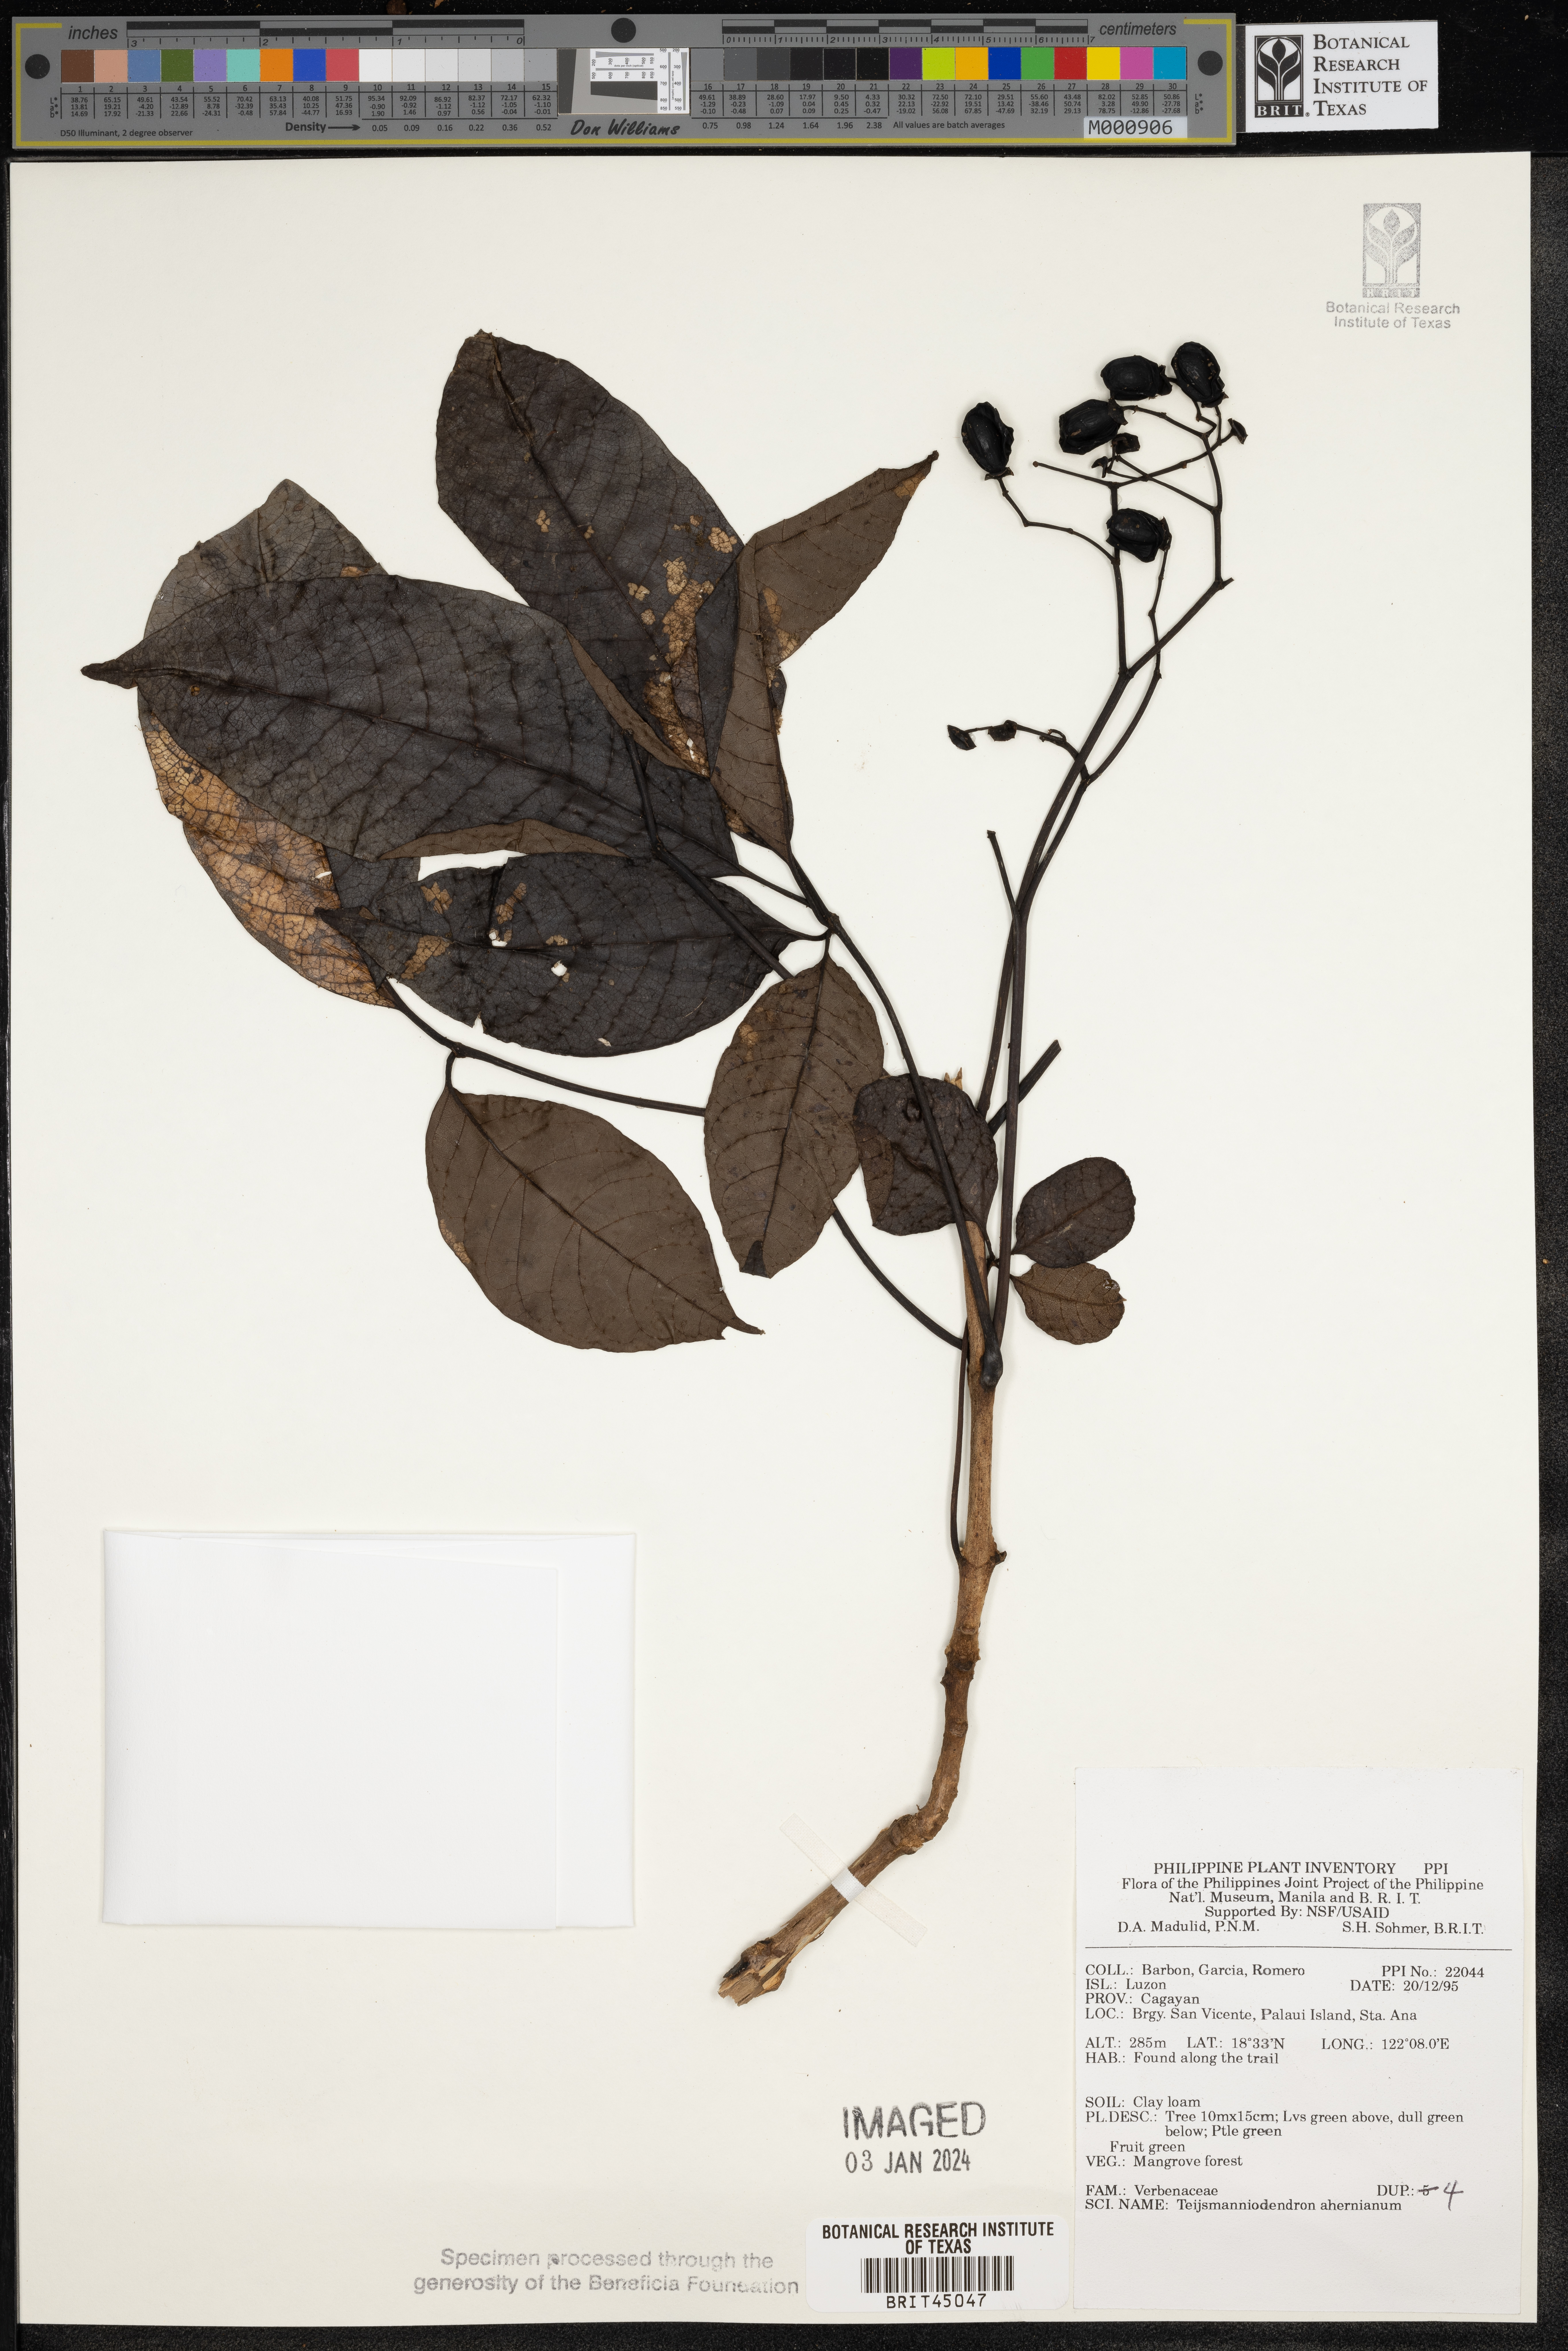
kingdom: Plantae
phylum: Tracheophyta
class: Magnoliopsida
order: Lamiales
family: Lamiaceae
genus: Teijsmanniodendron
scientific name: Teijsmanniodendron ahernianum
